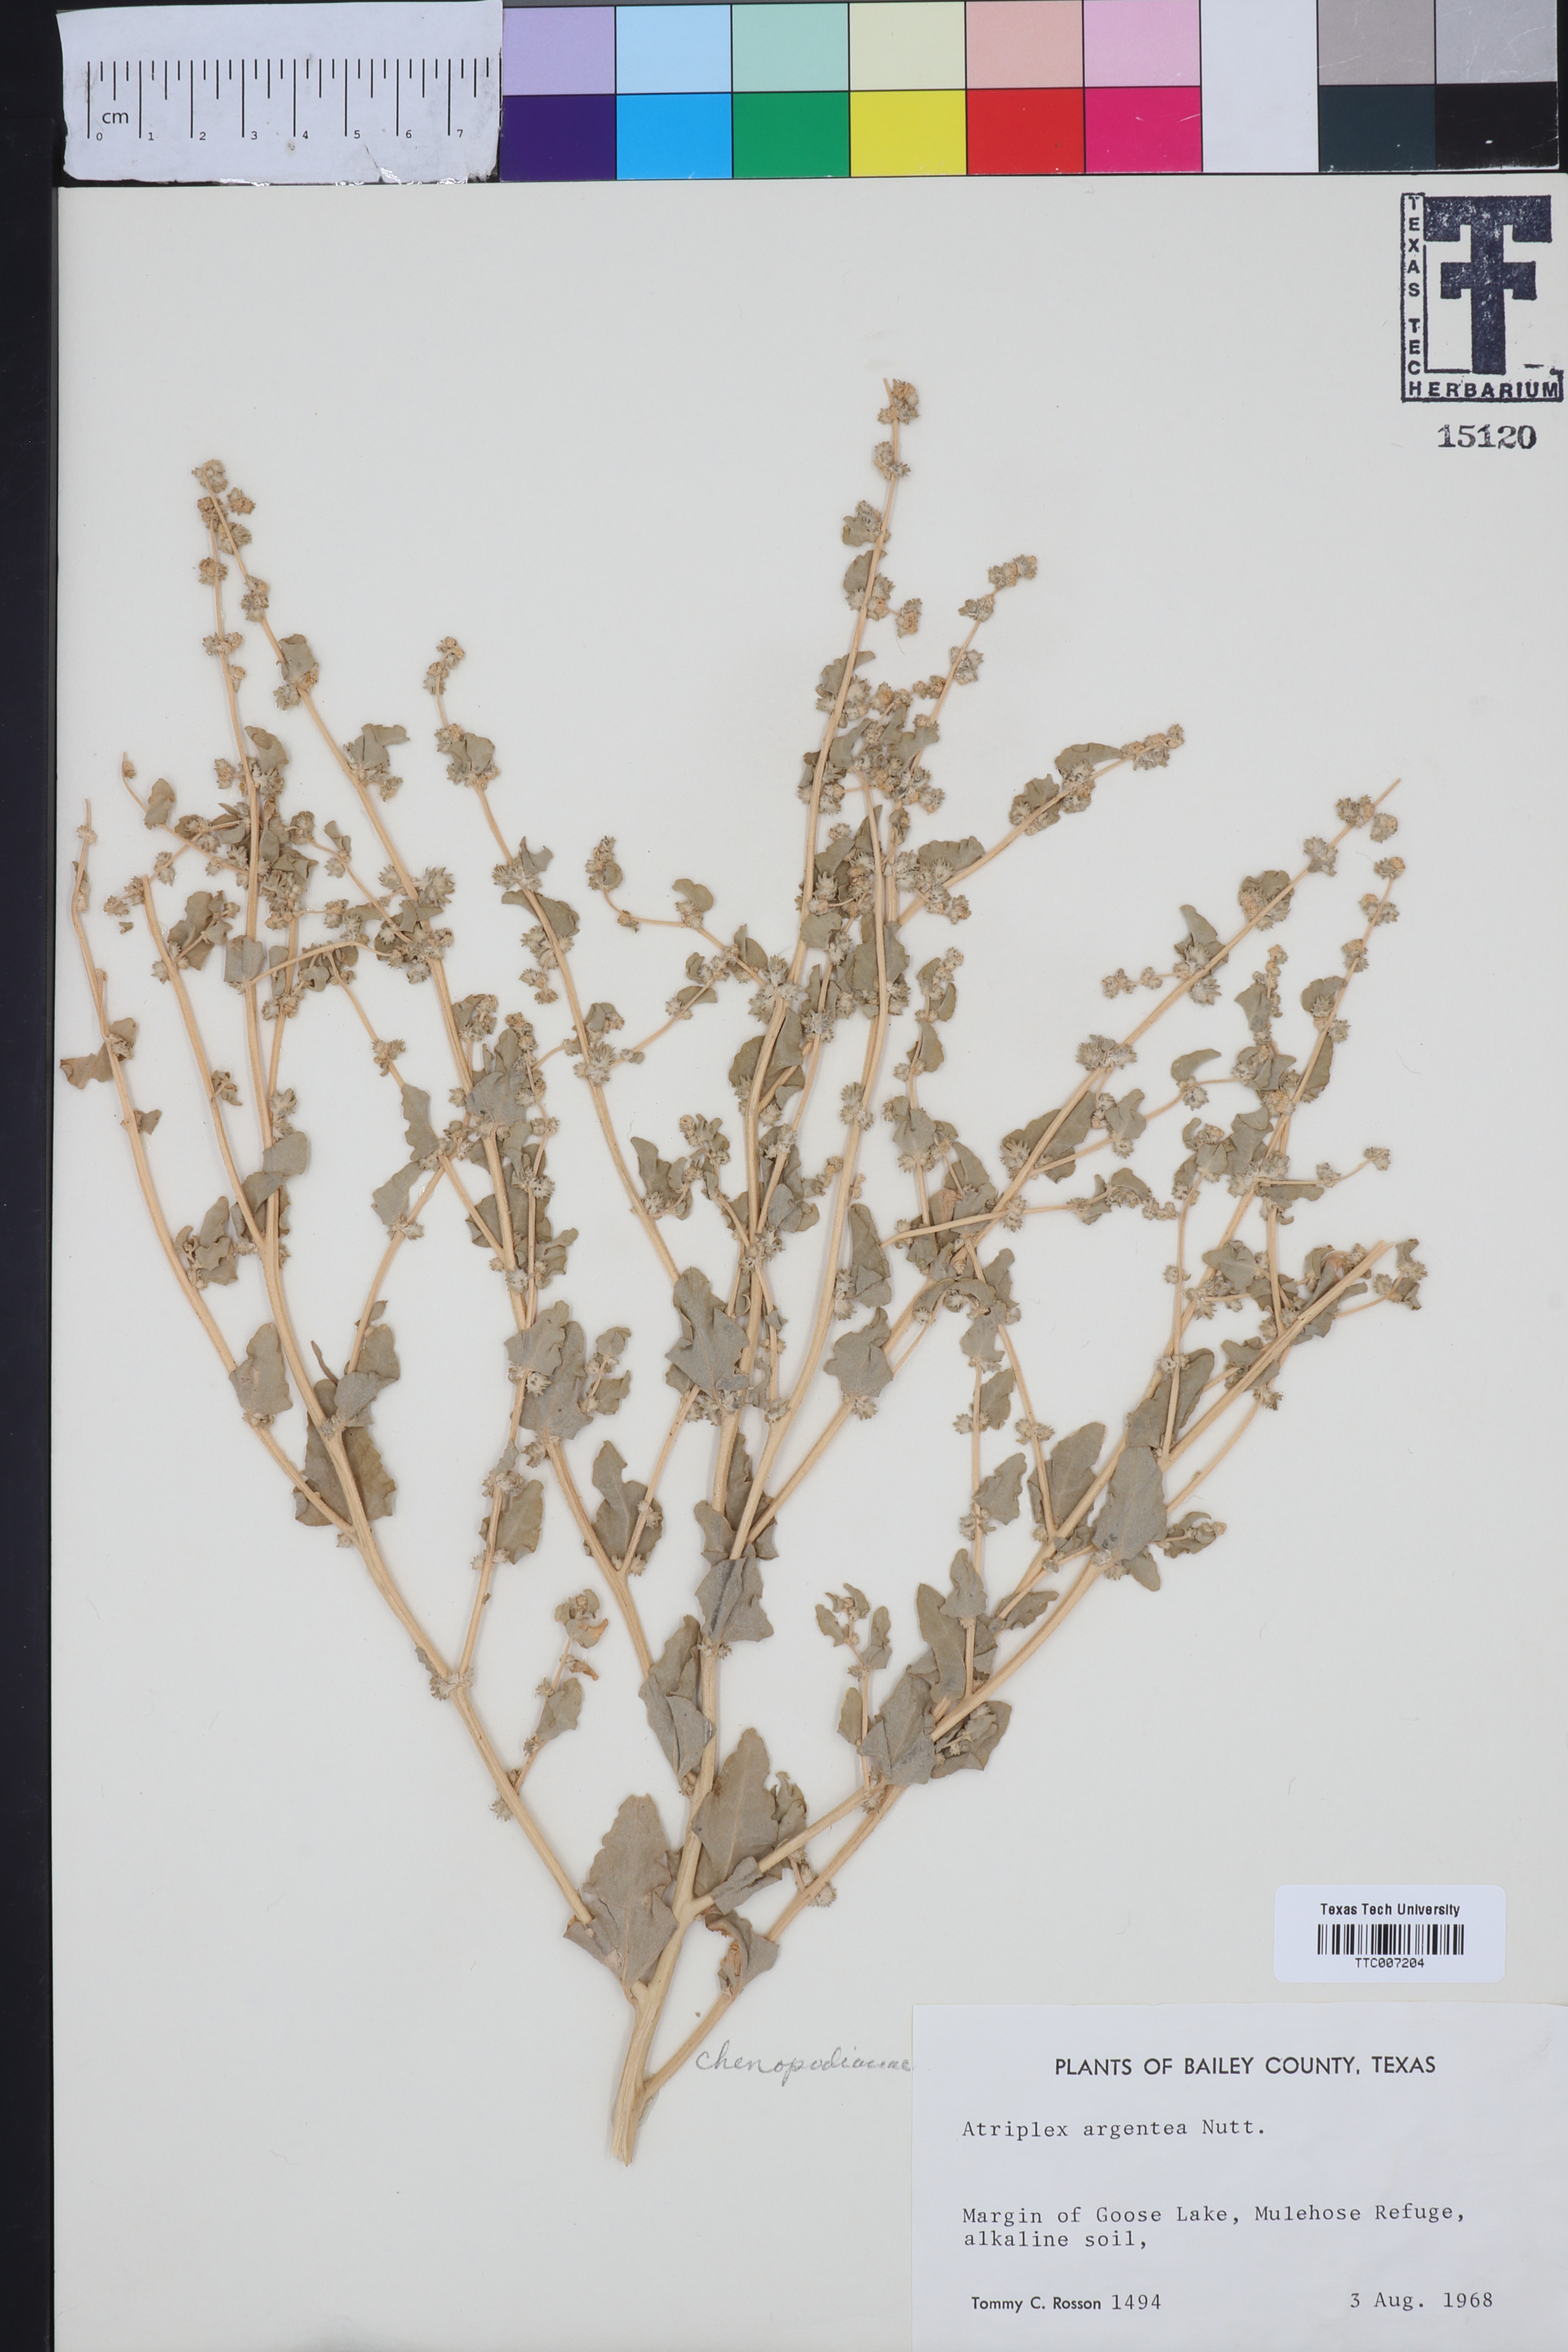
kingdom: Plantae
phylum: Tracheophyta
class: Magnoliopsida
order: Caryophyllales
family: Amaranthaceae
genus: Atriplex
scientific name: Atriplex argentea
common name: Silverscale
